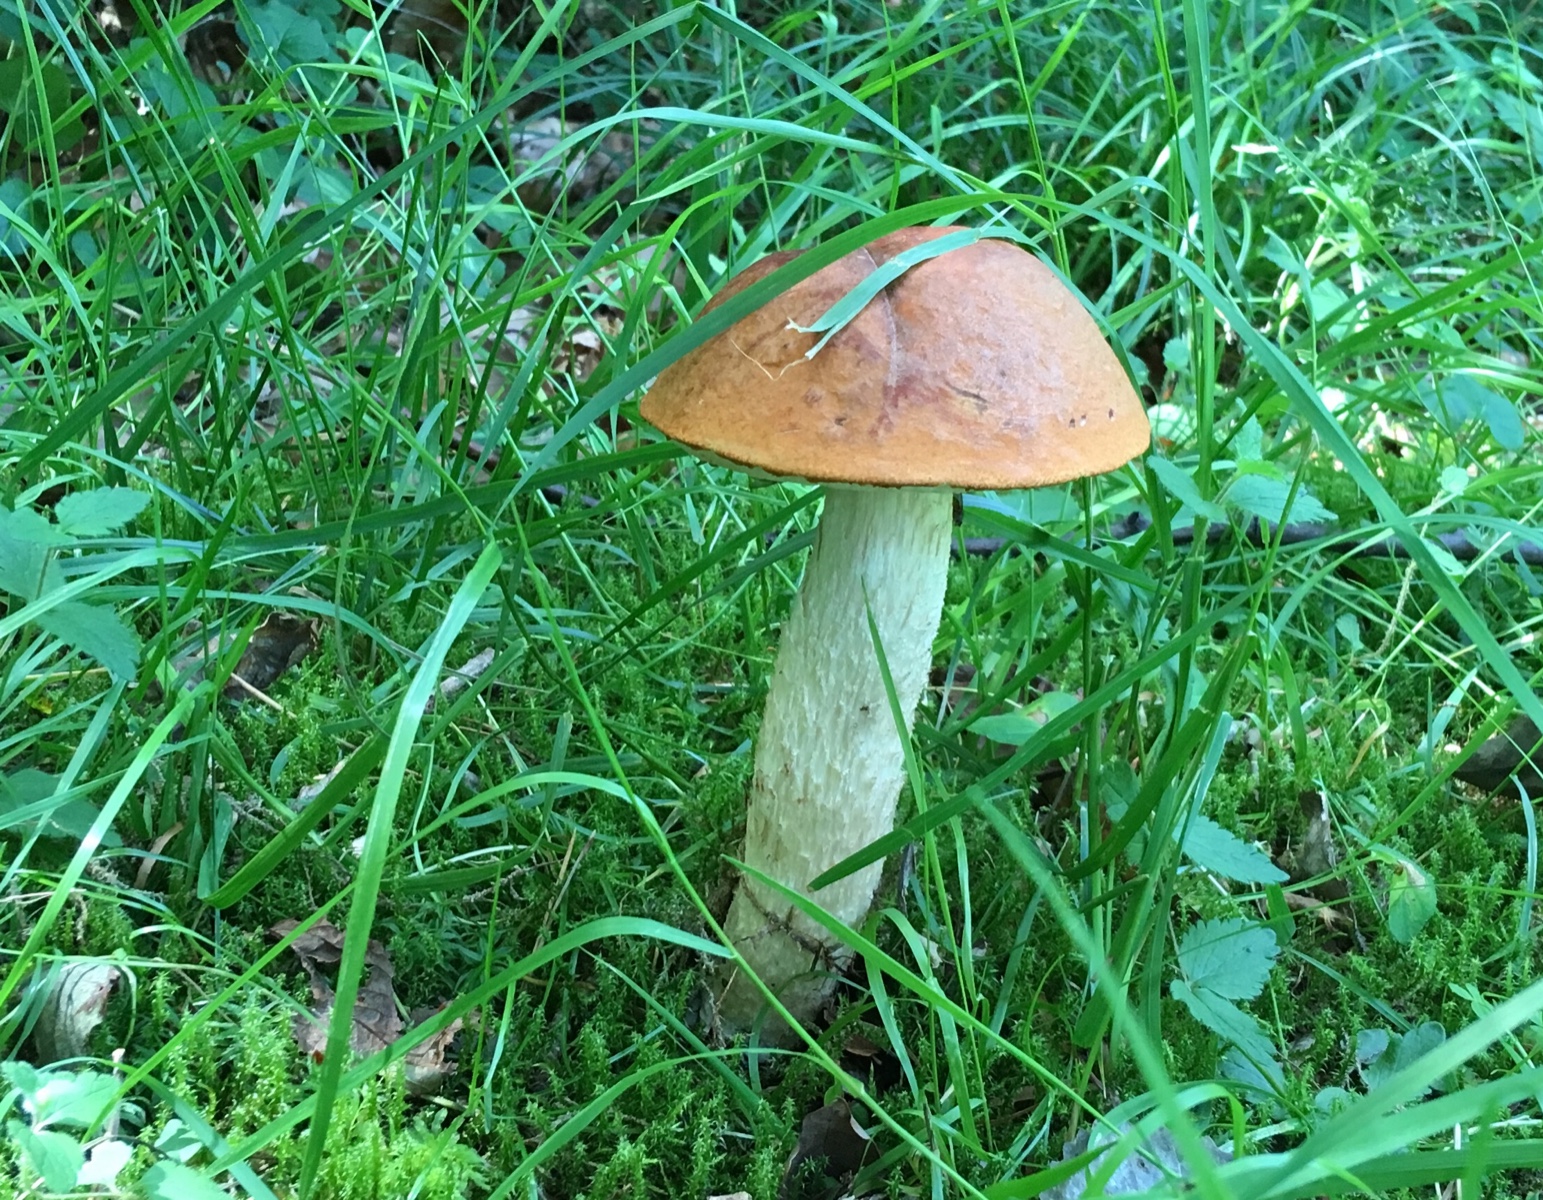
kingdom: Fungi
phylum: Basidiomycota
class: Agaricomycetes
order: Boletales
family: Boletaceae
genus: Leccinum
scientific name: Leccinum albostipitatum
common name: aspe-skælrørhat
